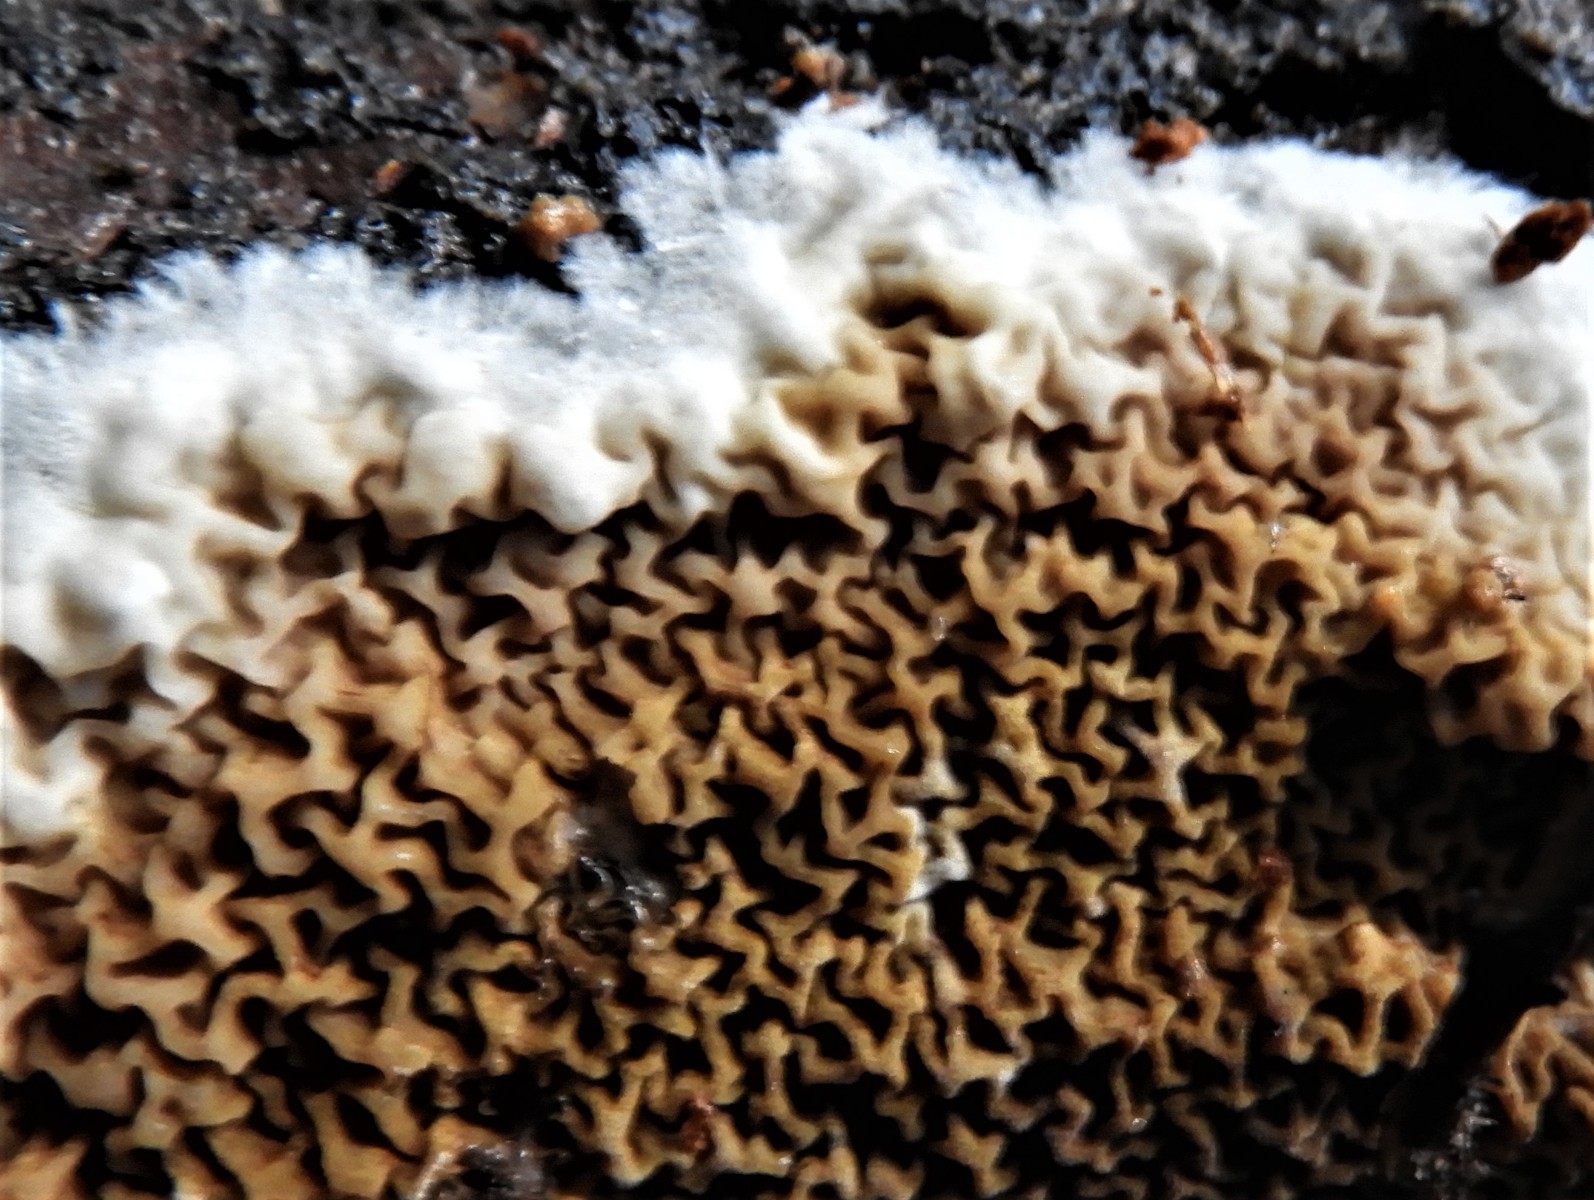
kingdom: Fungi
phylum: Basidiomycota
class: Agaricomycetes
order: Boletales
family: Serpulaceae
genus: Serpula
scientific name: Serpula himantioides
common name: tyndkødet hussvamp
